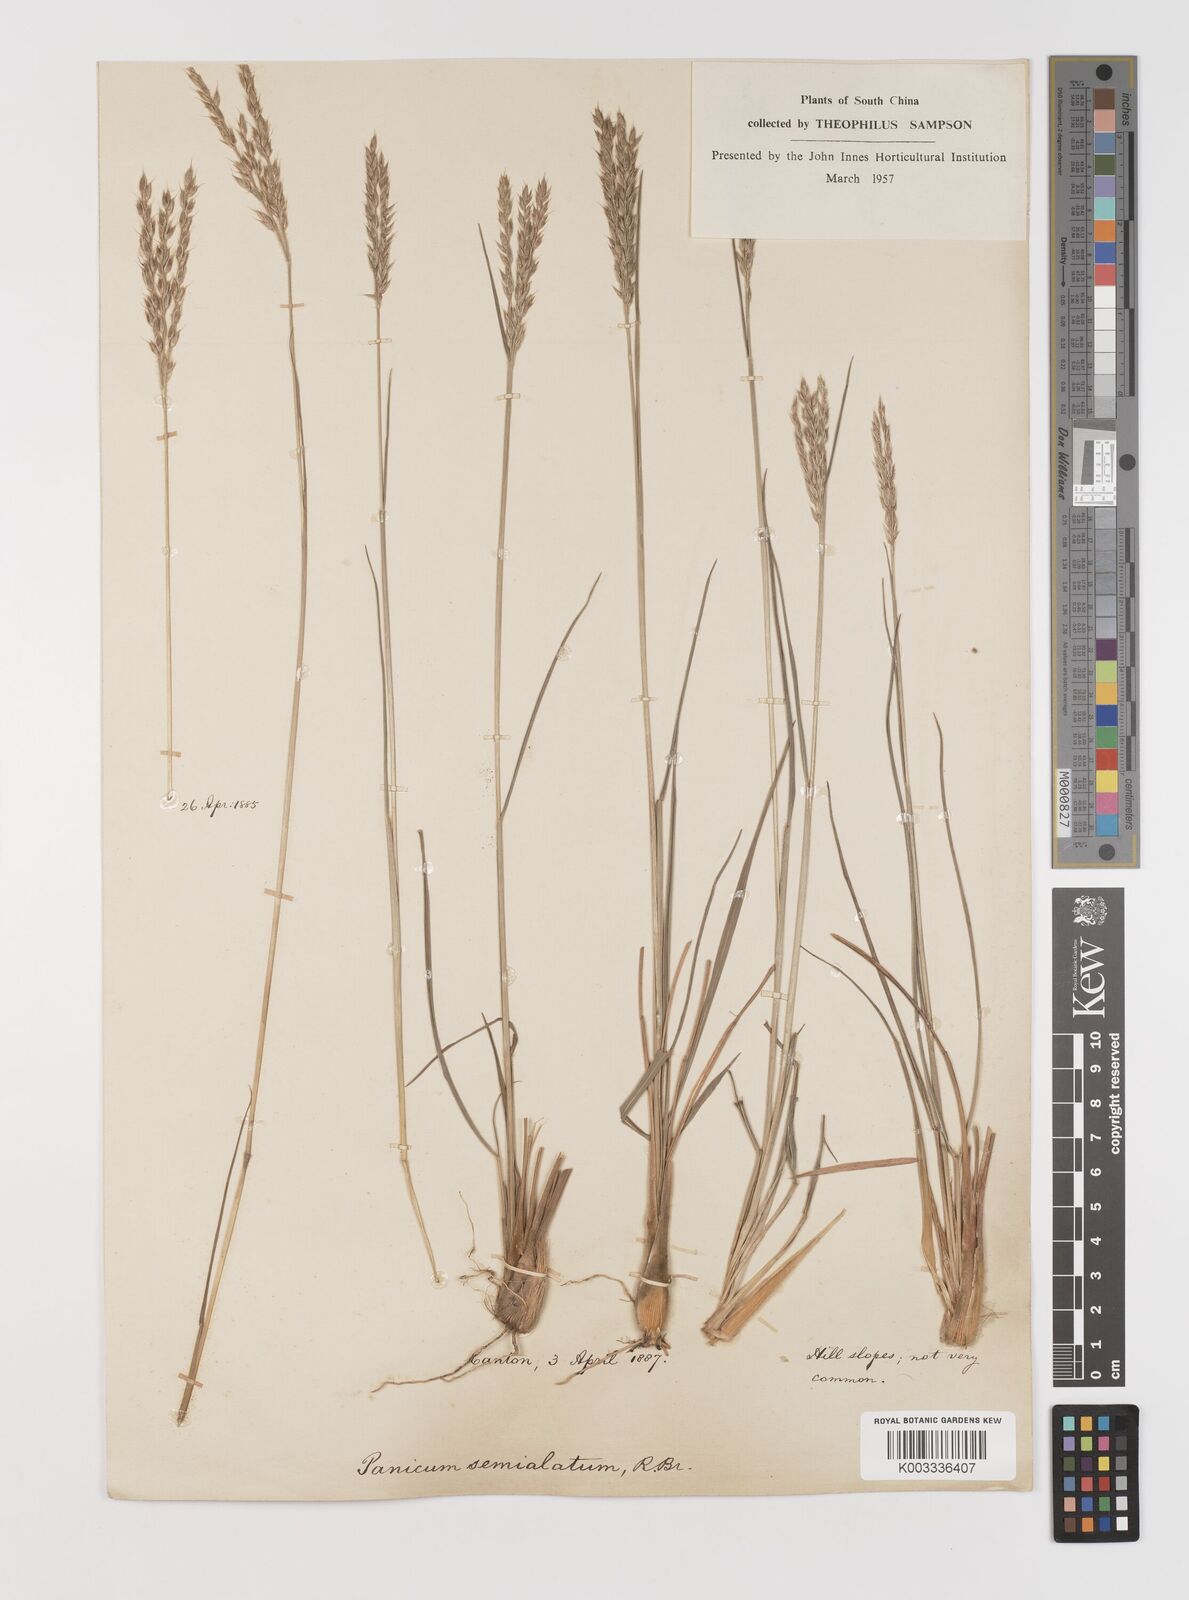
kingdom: Plantae
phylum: Tracheophyta
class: Liliopsida
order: Poales
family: Poaceae
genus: Alloteropsis
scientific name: Alloteropsis semialata
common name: Cockatoo grass
